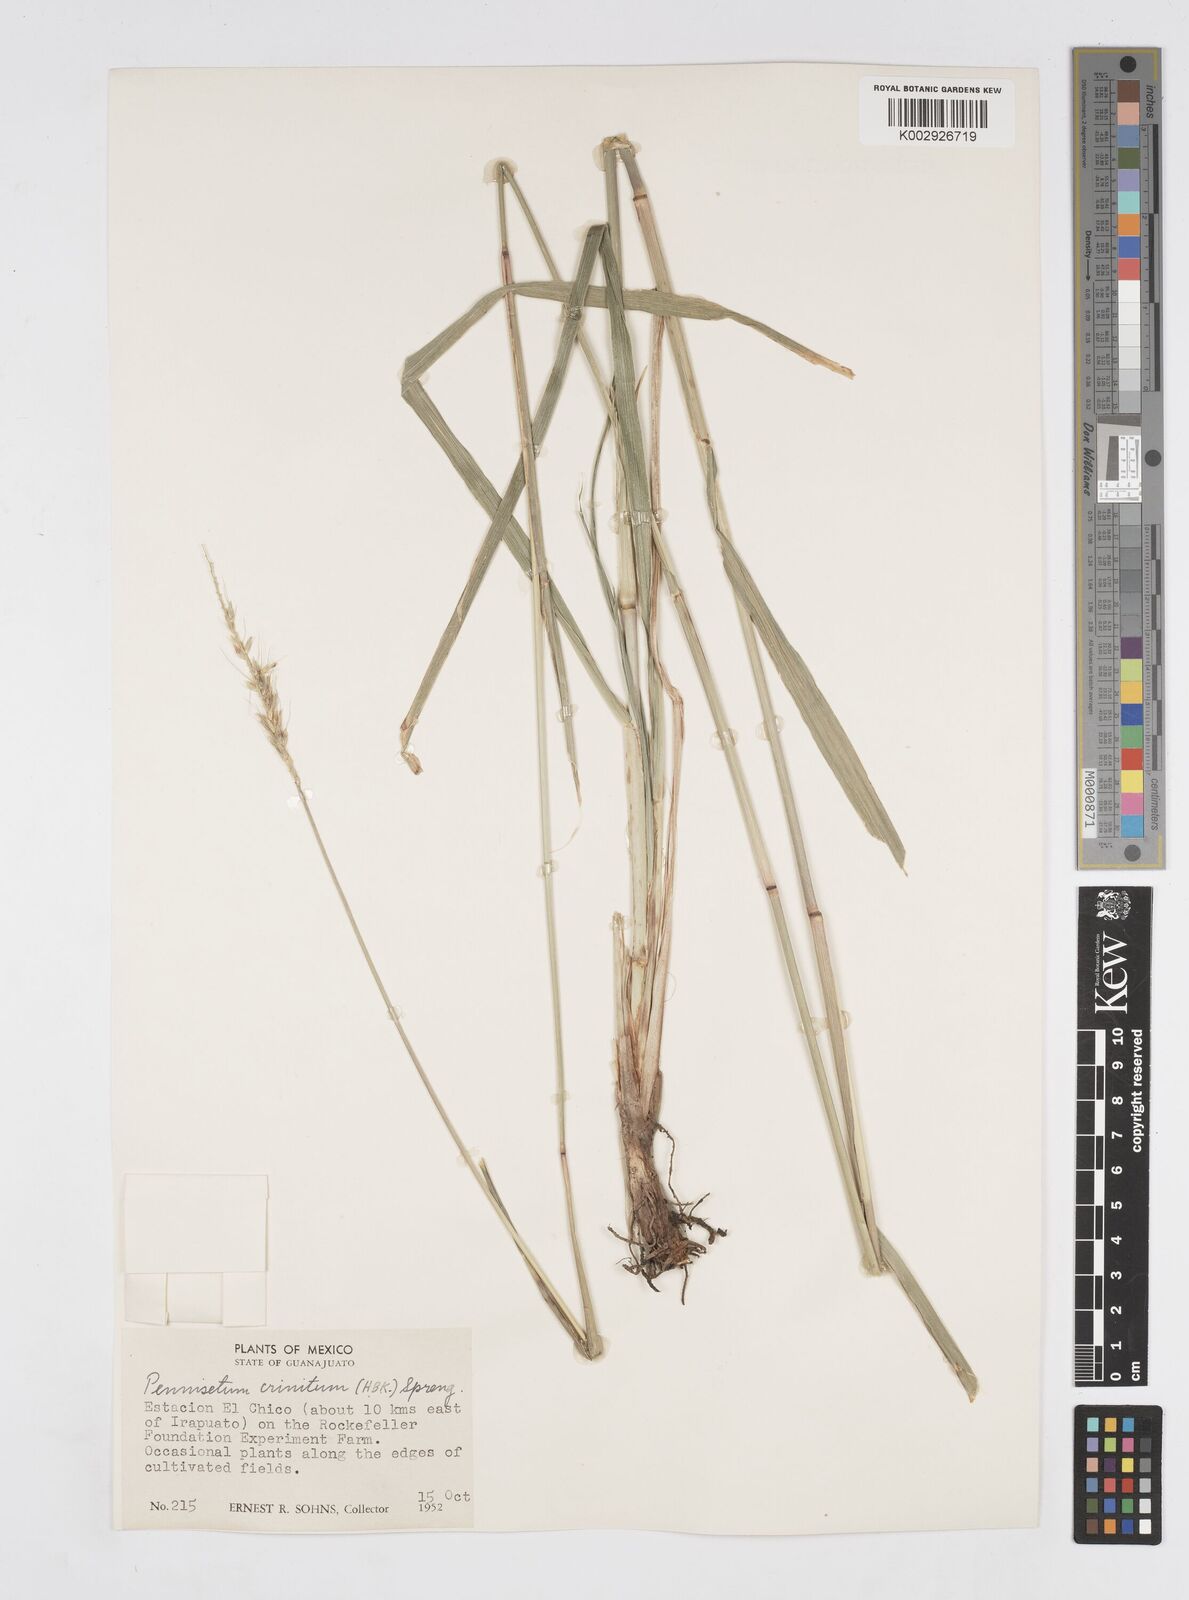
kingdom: Plantae
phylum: Tracheophyta
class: Liliopsida
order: Poales
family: Poaceae
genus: Cenchrus
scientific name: Cenchrus michoacanus
